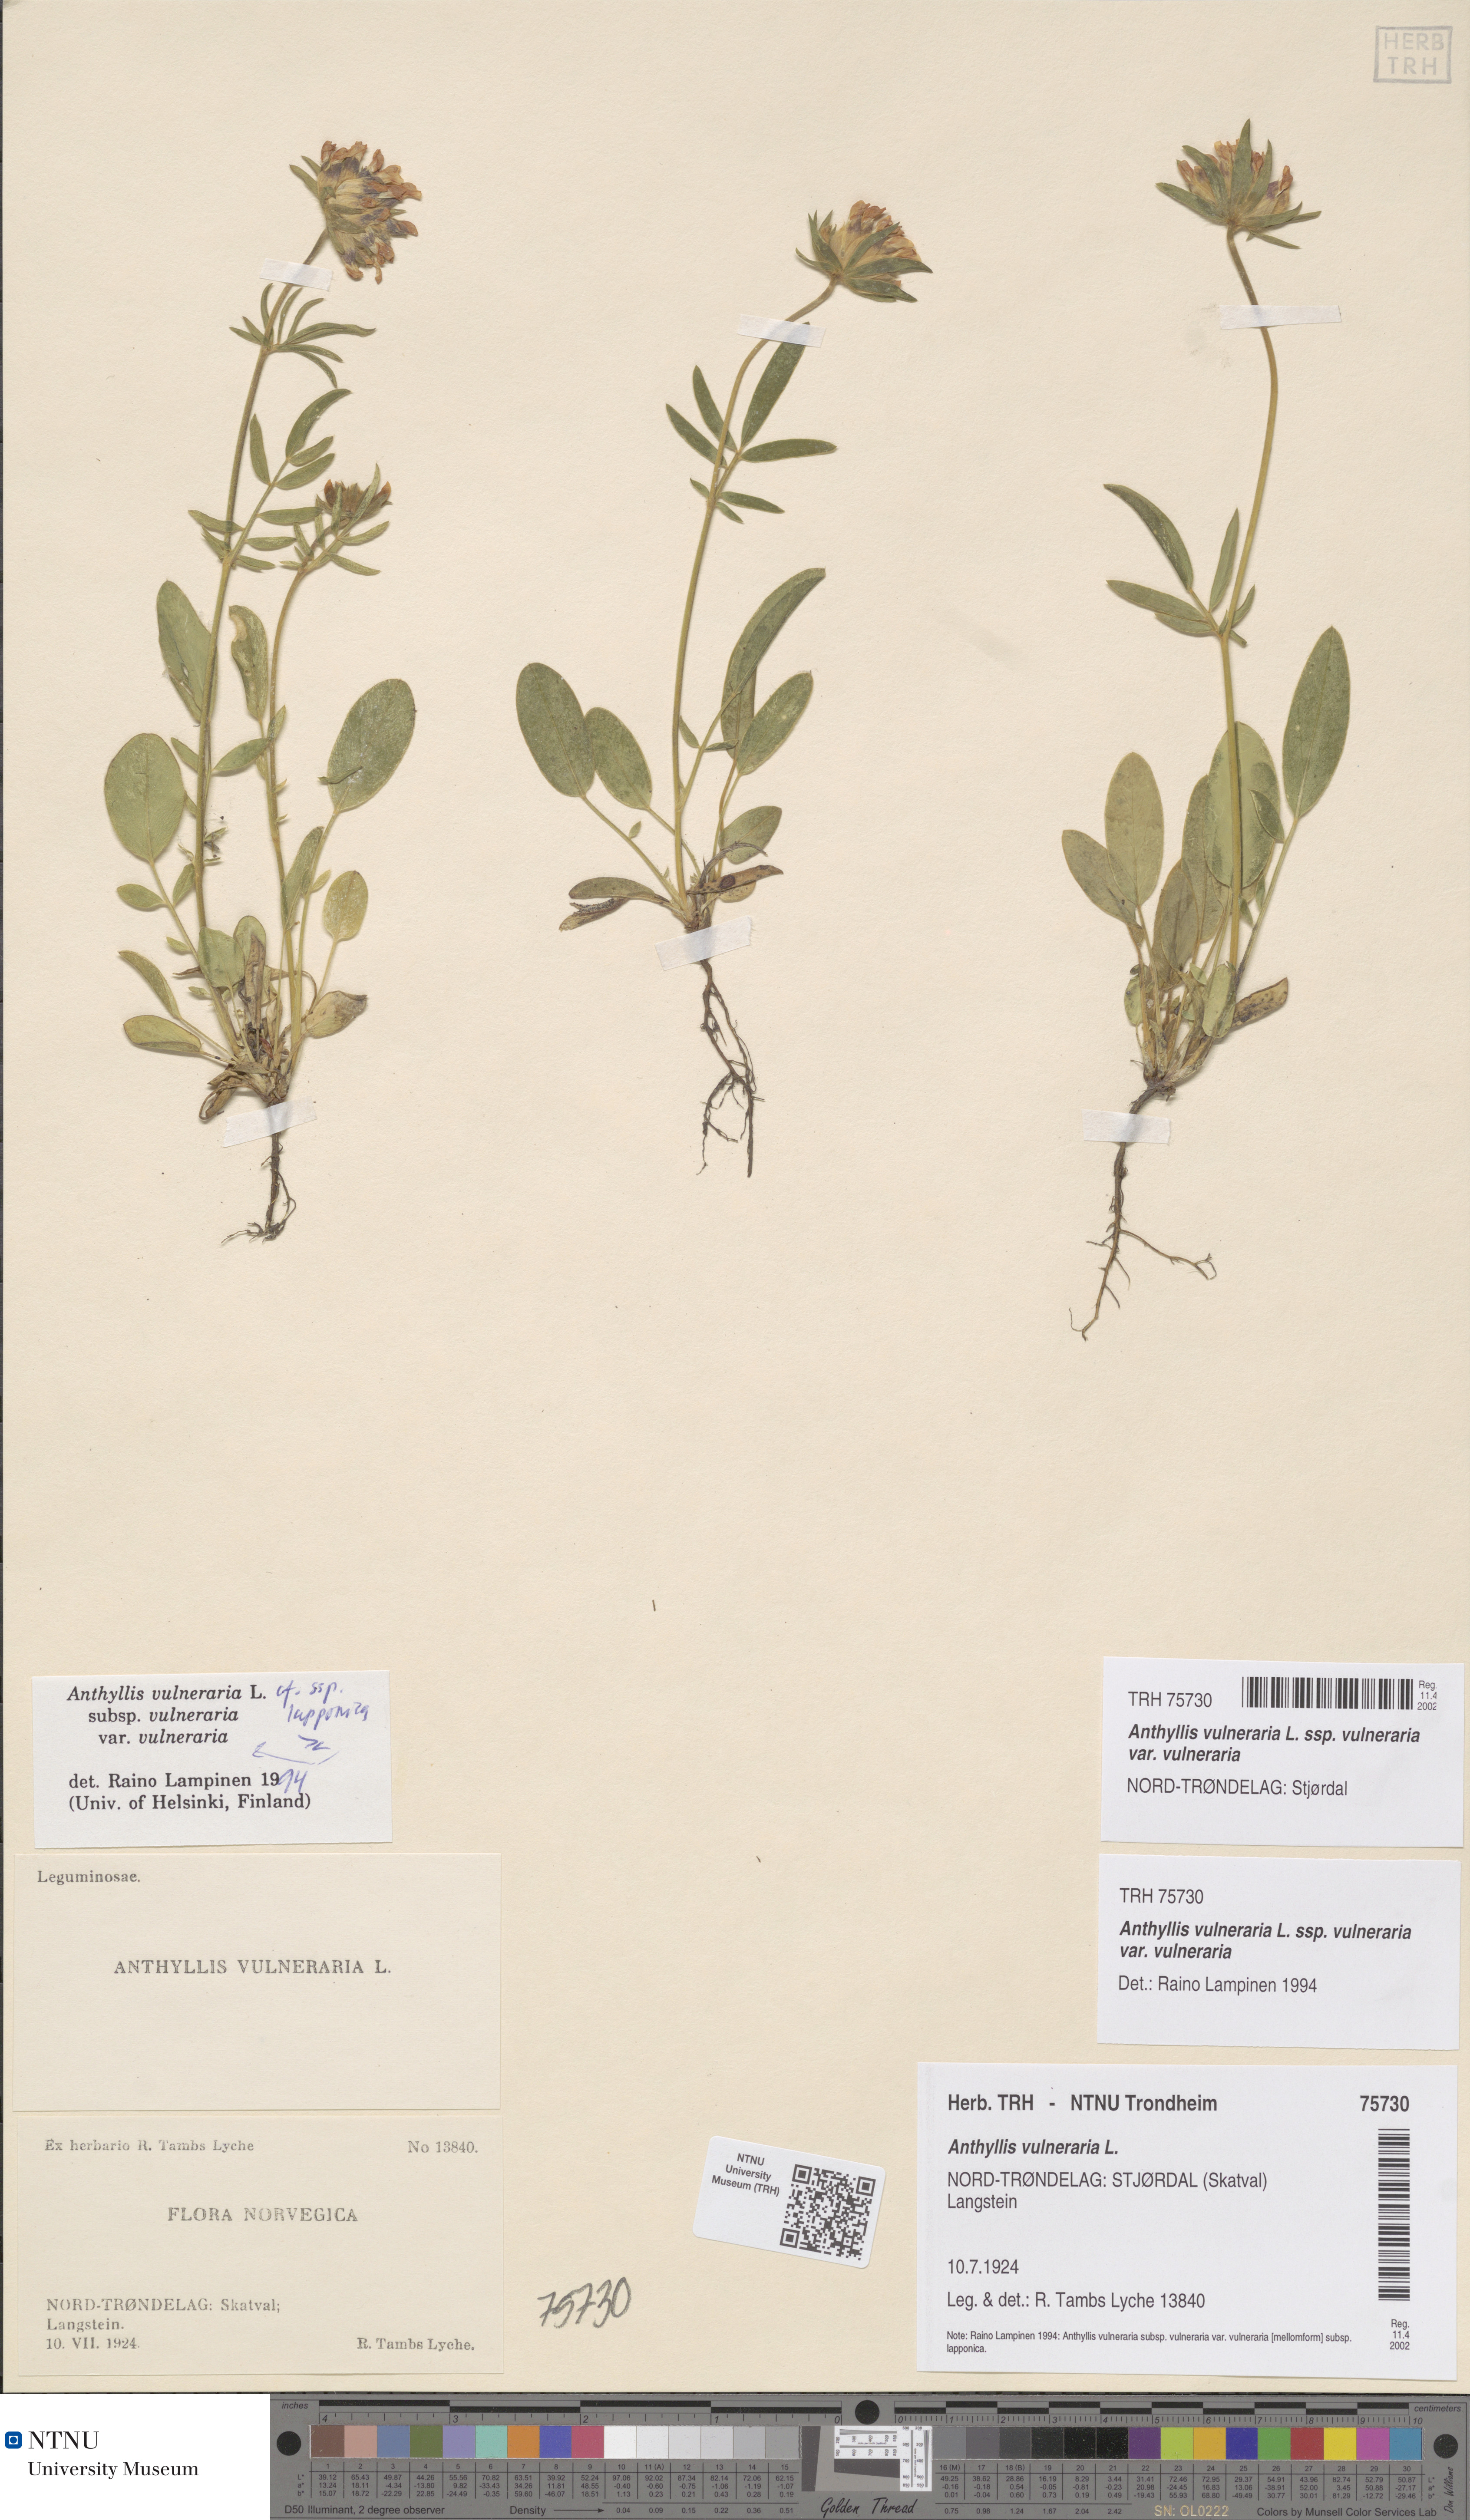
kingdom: Plantae
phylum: Tracheophyta
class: Magnoliopsida
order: Fabales
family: Fabaceae
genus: Anthyllis
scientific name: Anthyllis vulneraria
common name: Kidney vetch
